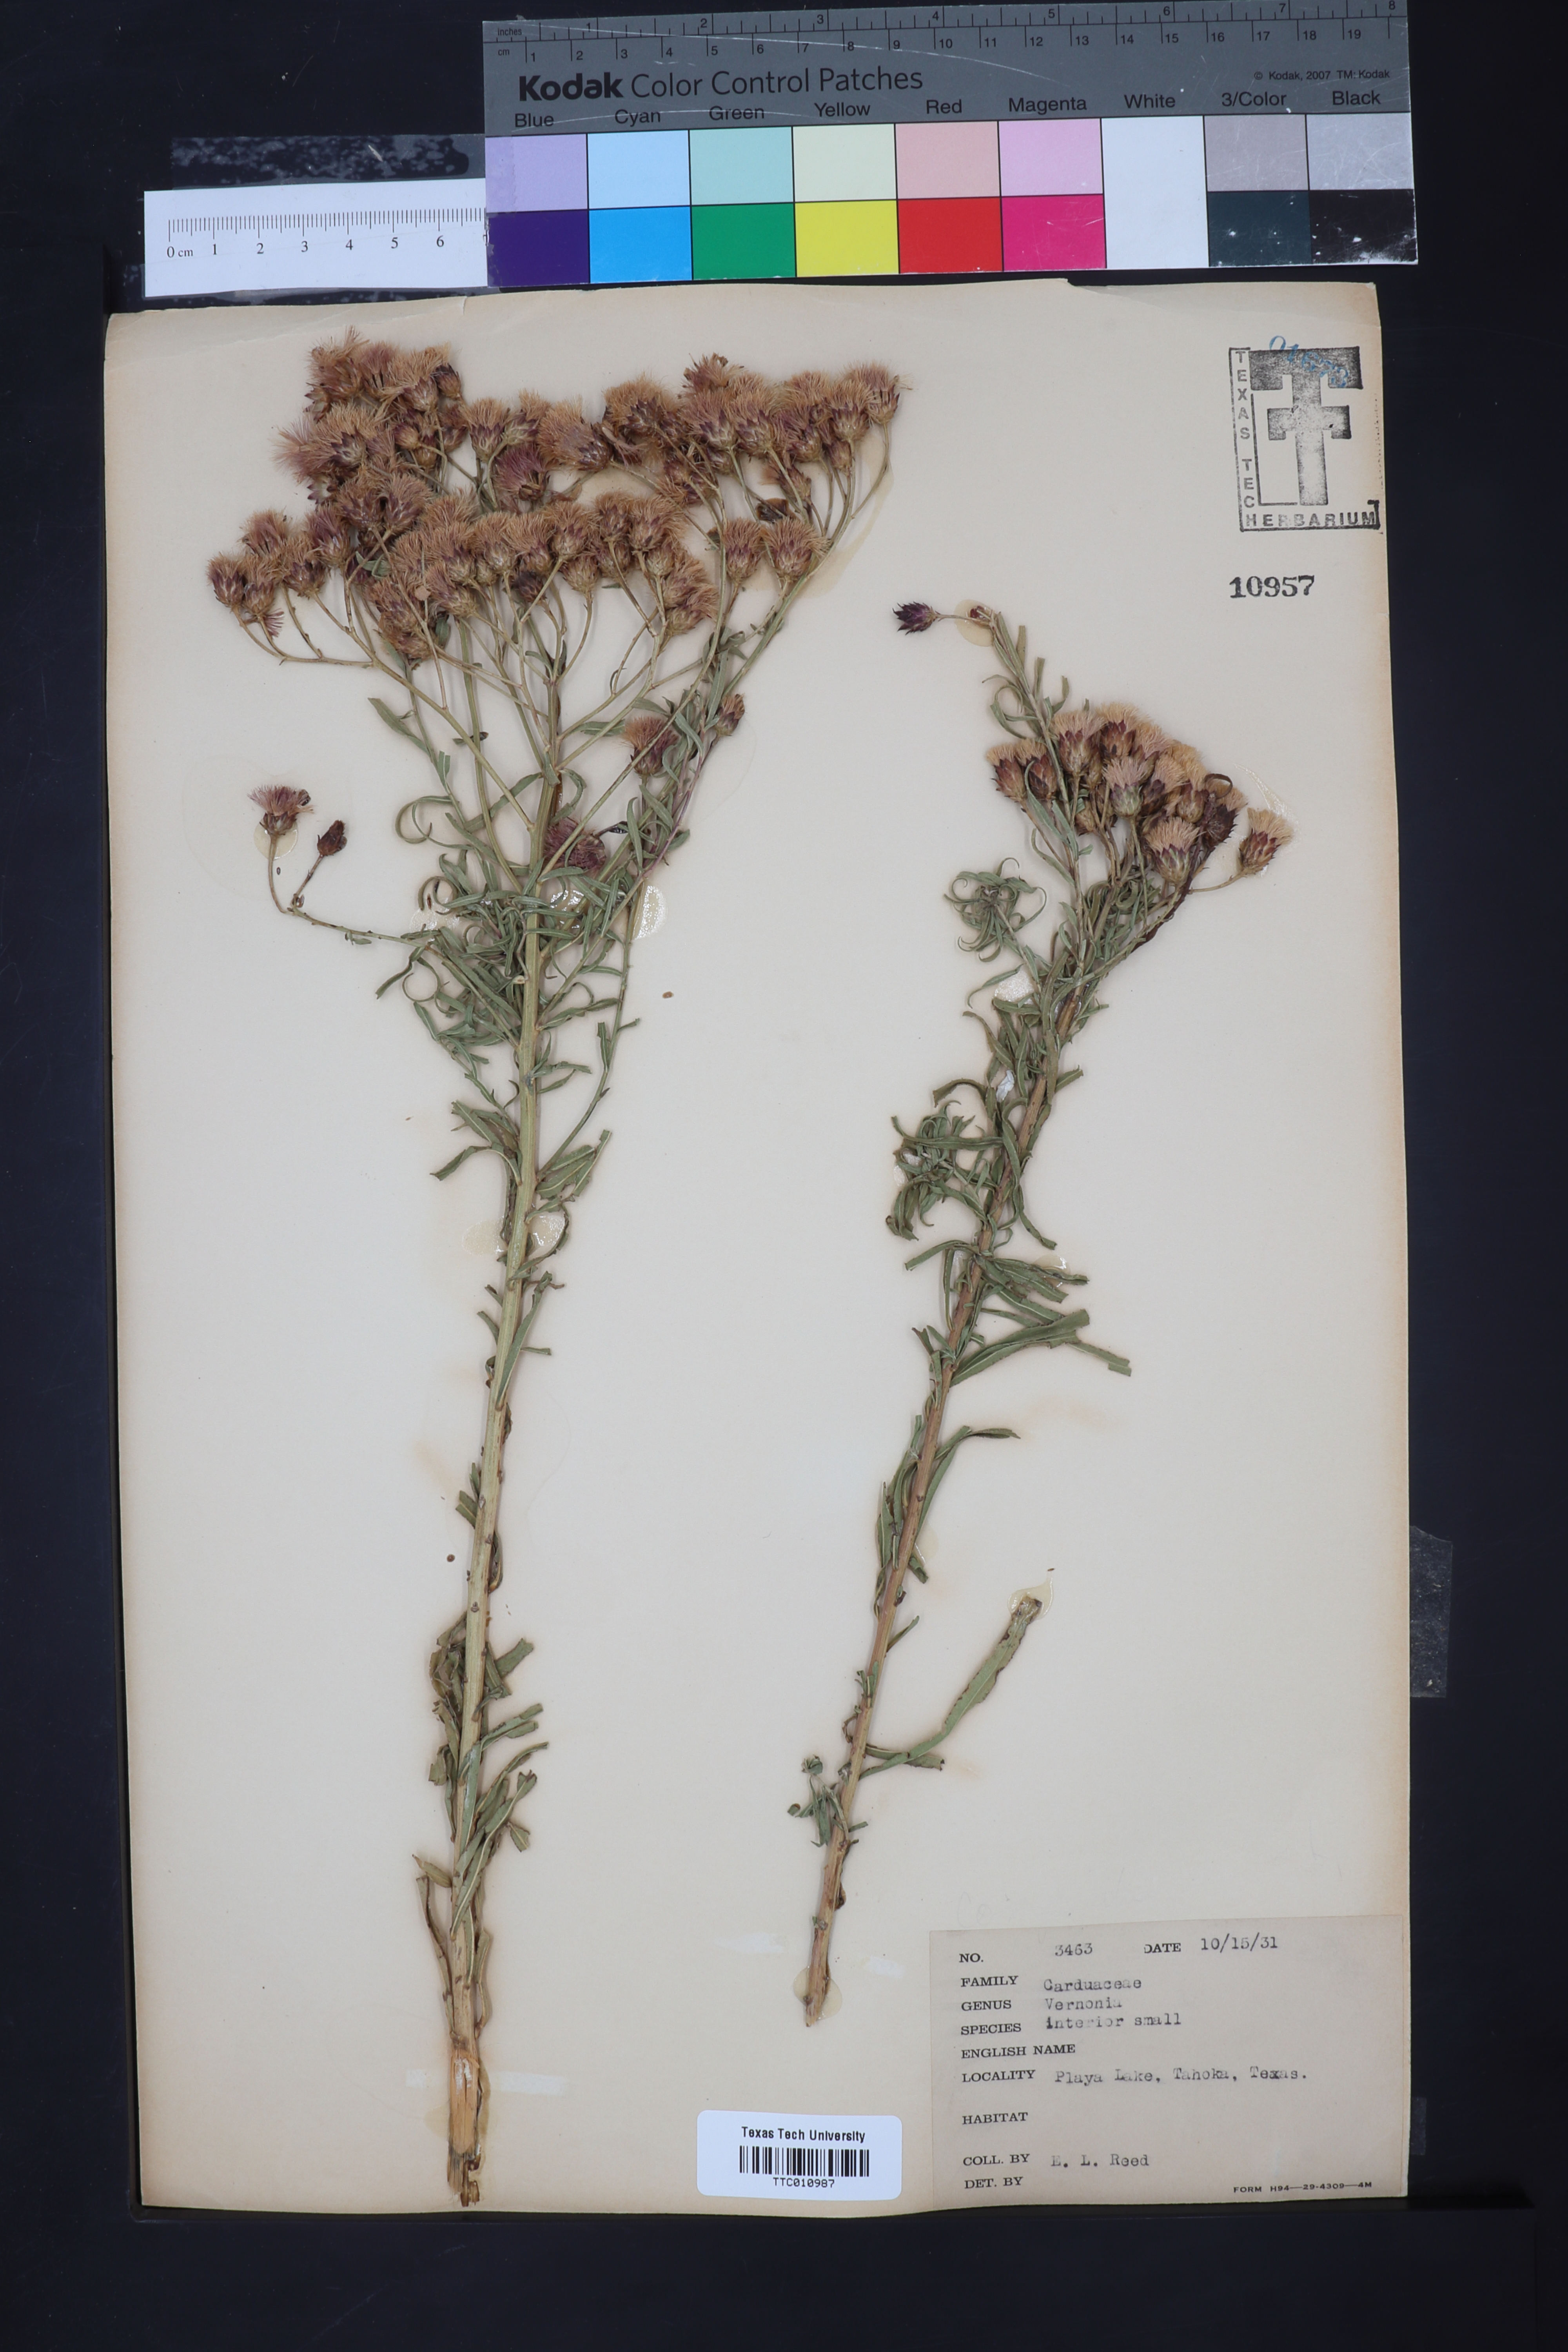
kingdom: Plantae
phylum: Tracheophyta
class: Magnoliopsida
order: Asterales
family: Asteraceae
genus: Vernonia
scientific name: Vernonia baldwinii
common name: Western ironweed
